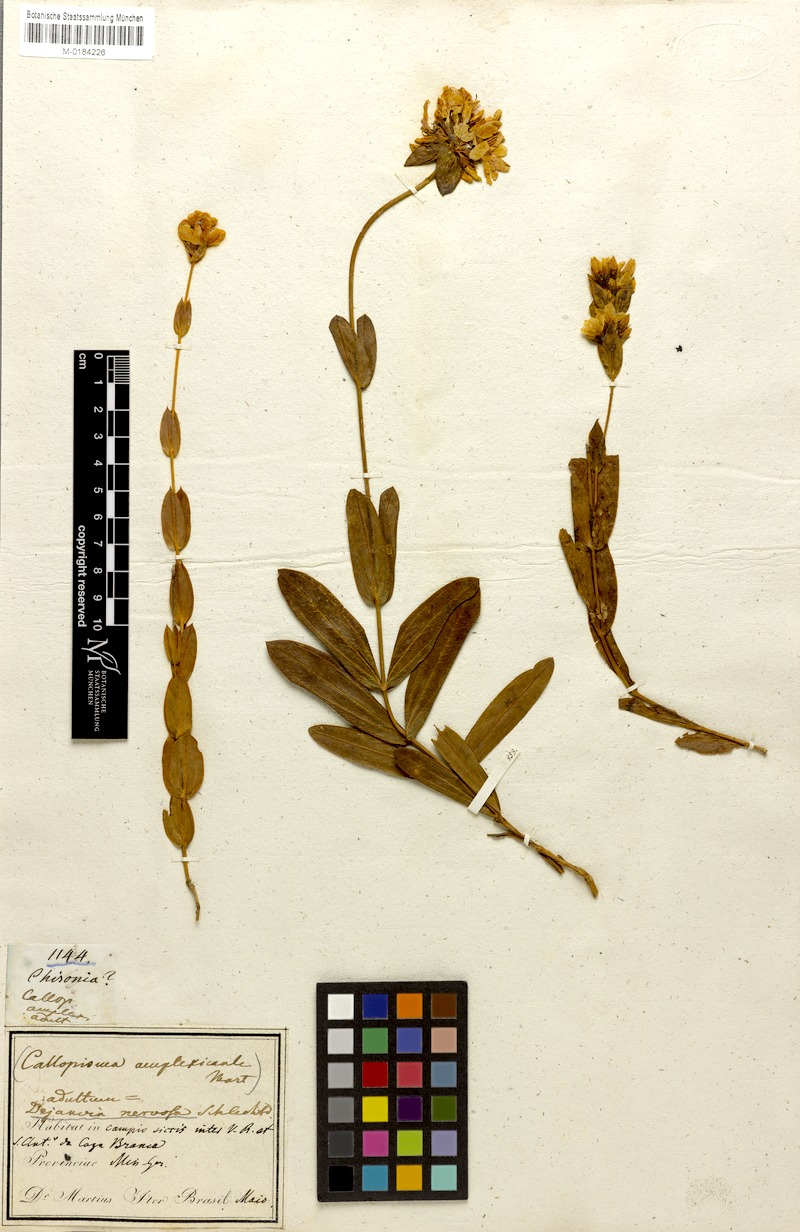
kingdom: Plantae
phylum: Tracheophyta
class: Magnoliopsida
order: Gentianales
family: Gentianaceae
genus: Deianira
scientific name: Deianira nervosa
